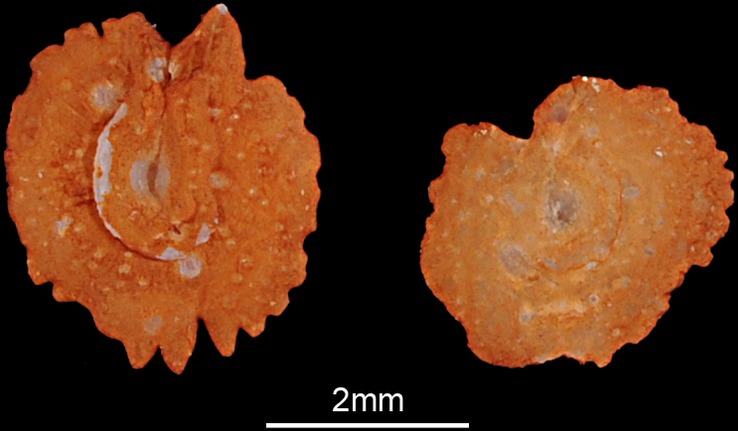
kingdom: Animalia
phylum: Chordata
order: Cypriniformes
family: Cyprinidae
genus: Leuciscus
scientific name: Leuciscus idus
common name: Ide
